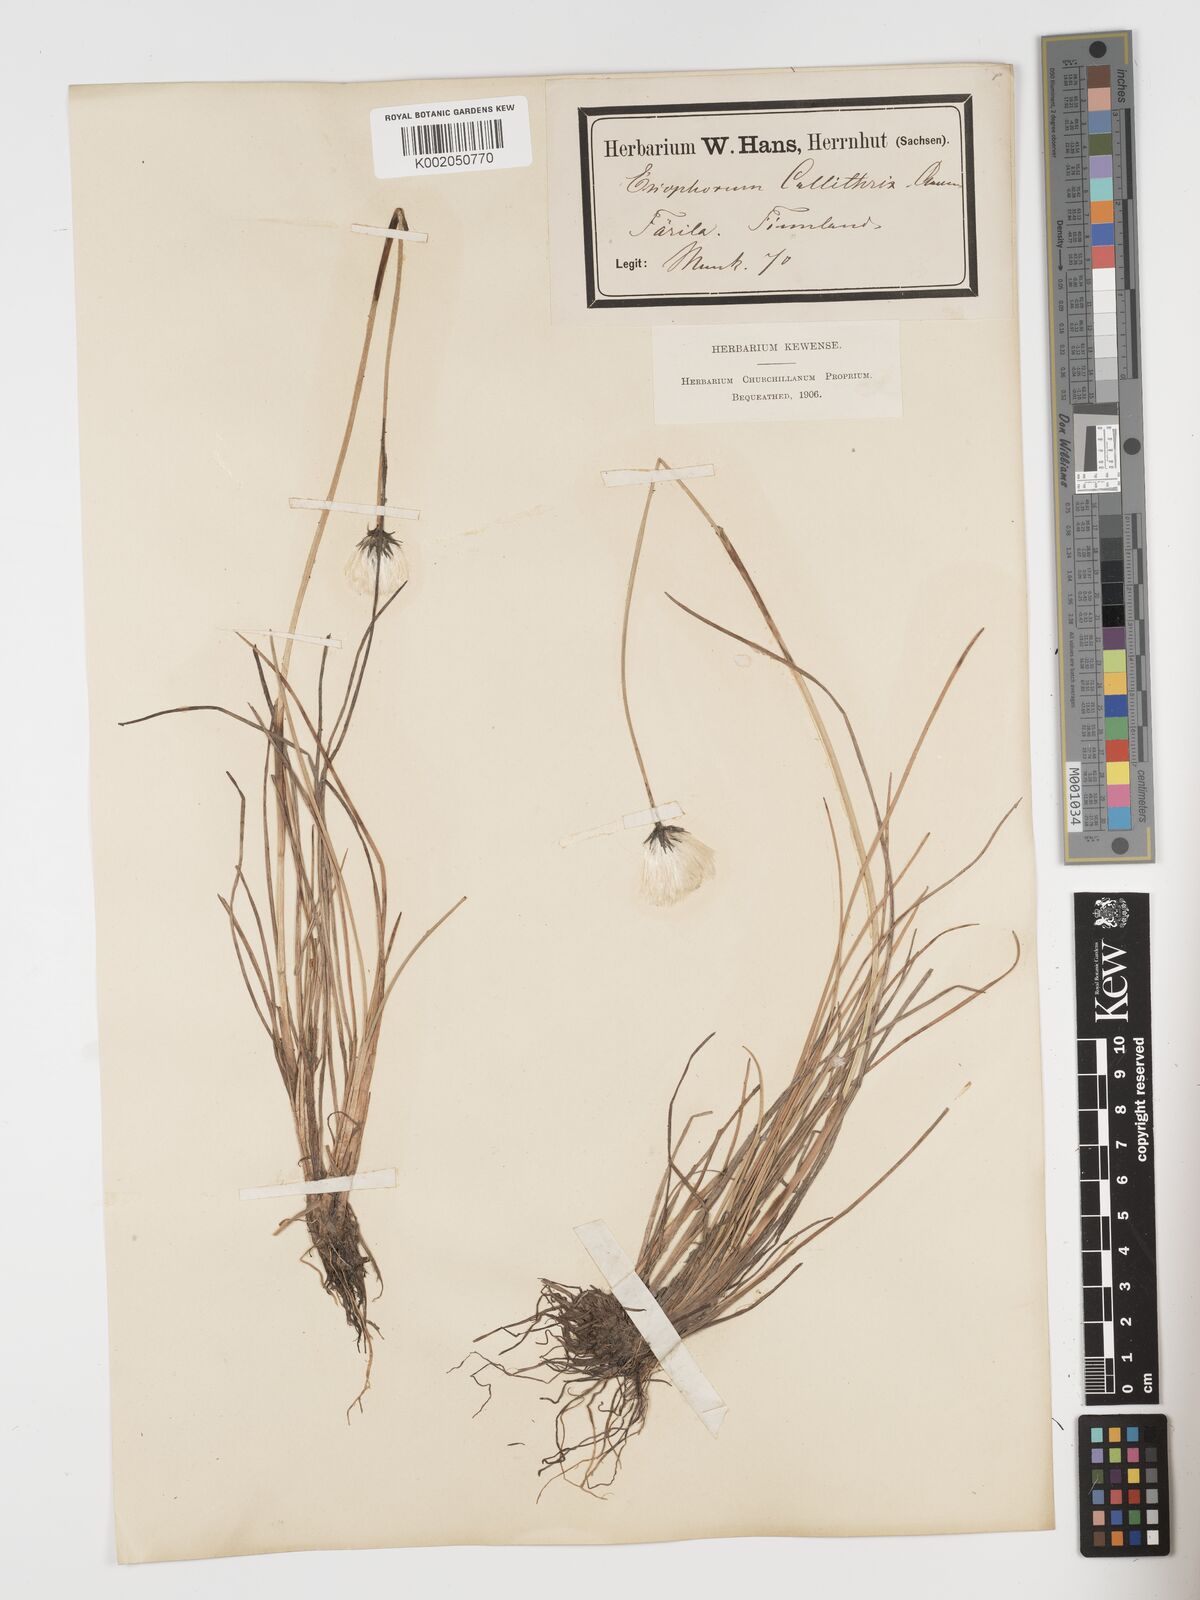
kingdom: Plantae
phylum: Tracheophyta
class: Liliopsida
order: Poales
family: Cyperaceae
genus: Eriophorum
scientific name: Eriophorum brachyantherum
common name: Closed-sheathed cottongrass
